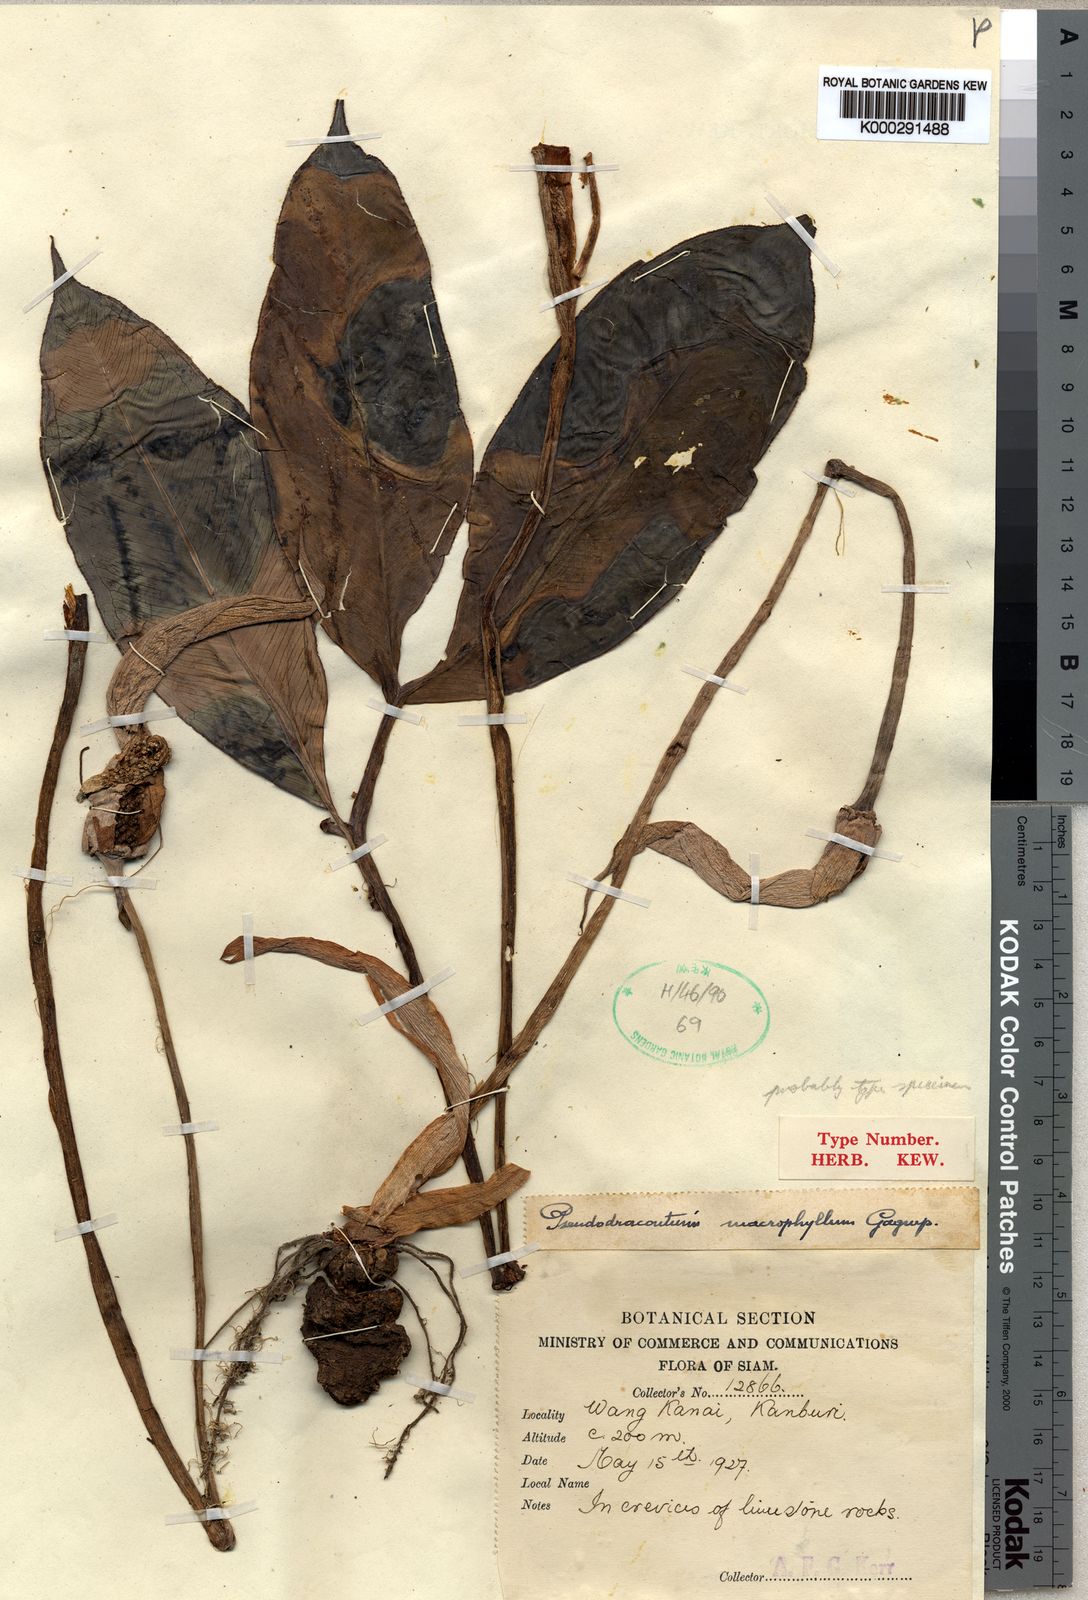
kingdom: Plantae
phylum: Tracheophyta
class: Liliopsida
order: Alismatales
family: Araceae
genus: Amorphophallus
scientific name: Amorphophallus macrophyllus
